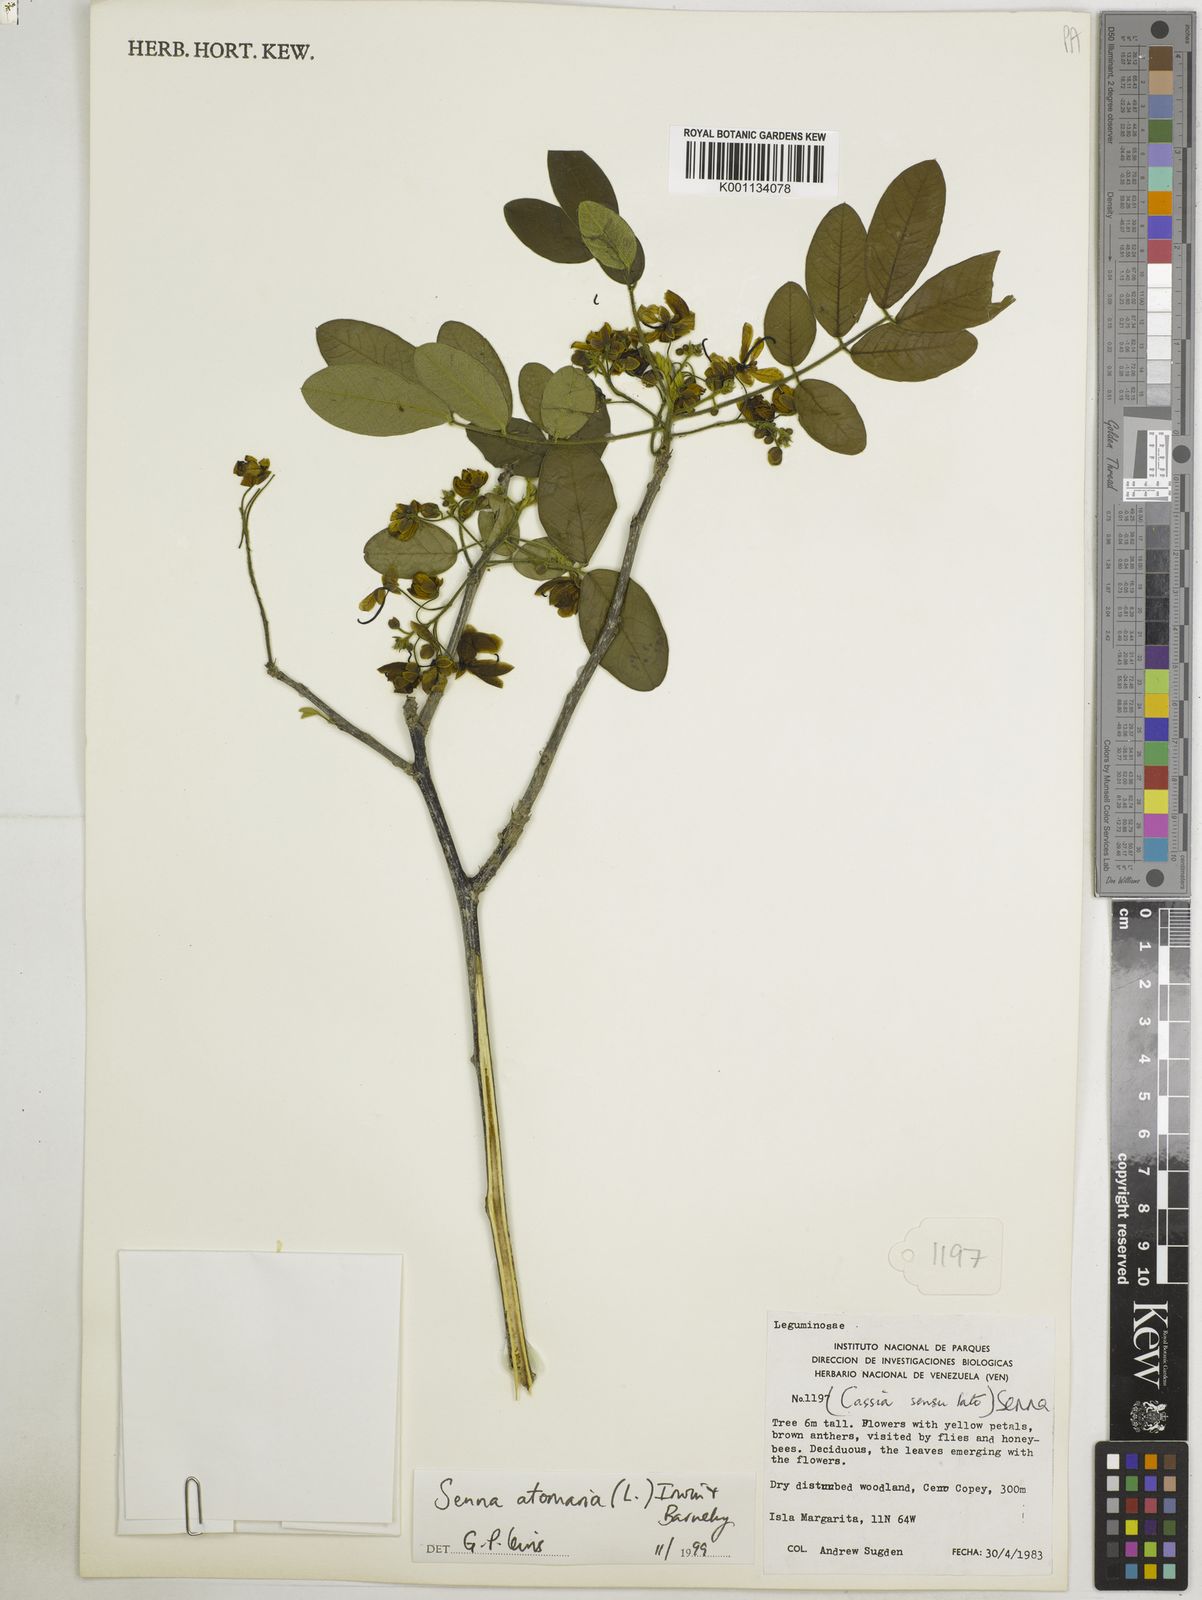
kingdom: Plantae
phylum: Tracheophyta
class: Magnoliopsida
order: Fabales
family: Fabaceae
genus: Senna
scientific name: Senna atomaria
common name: Flor de san jose
